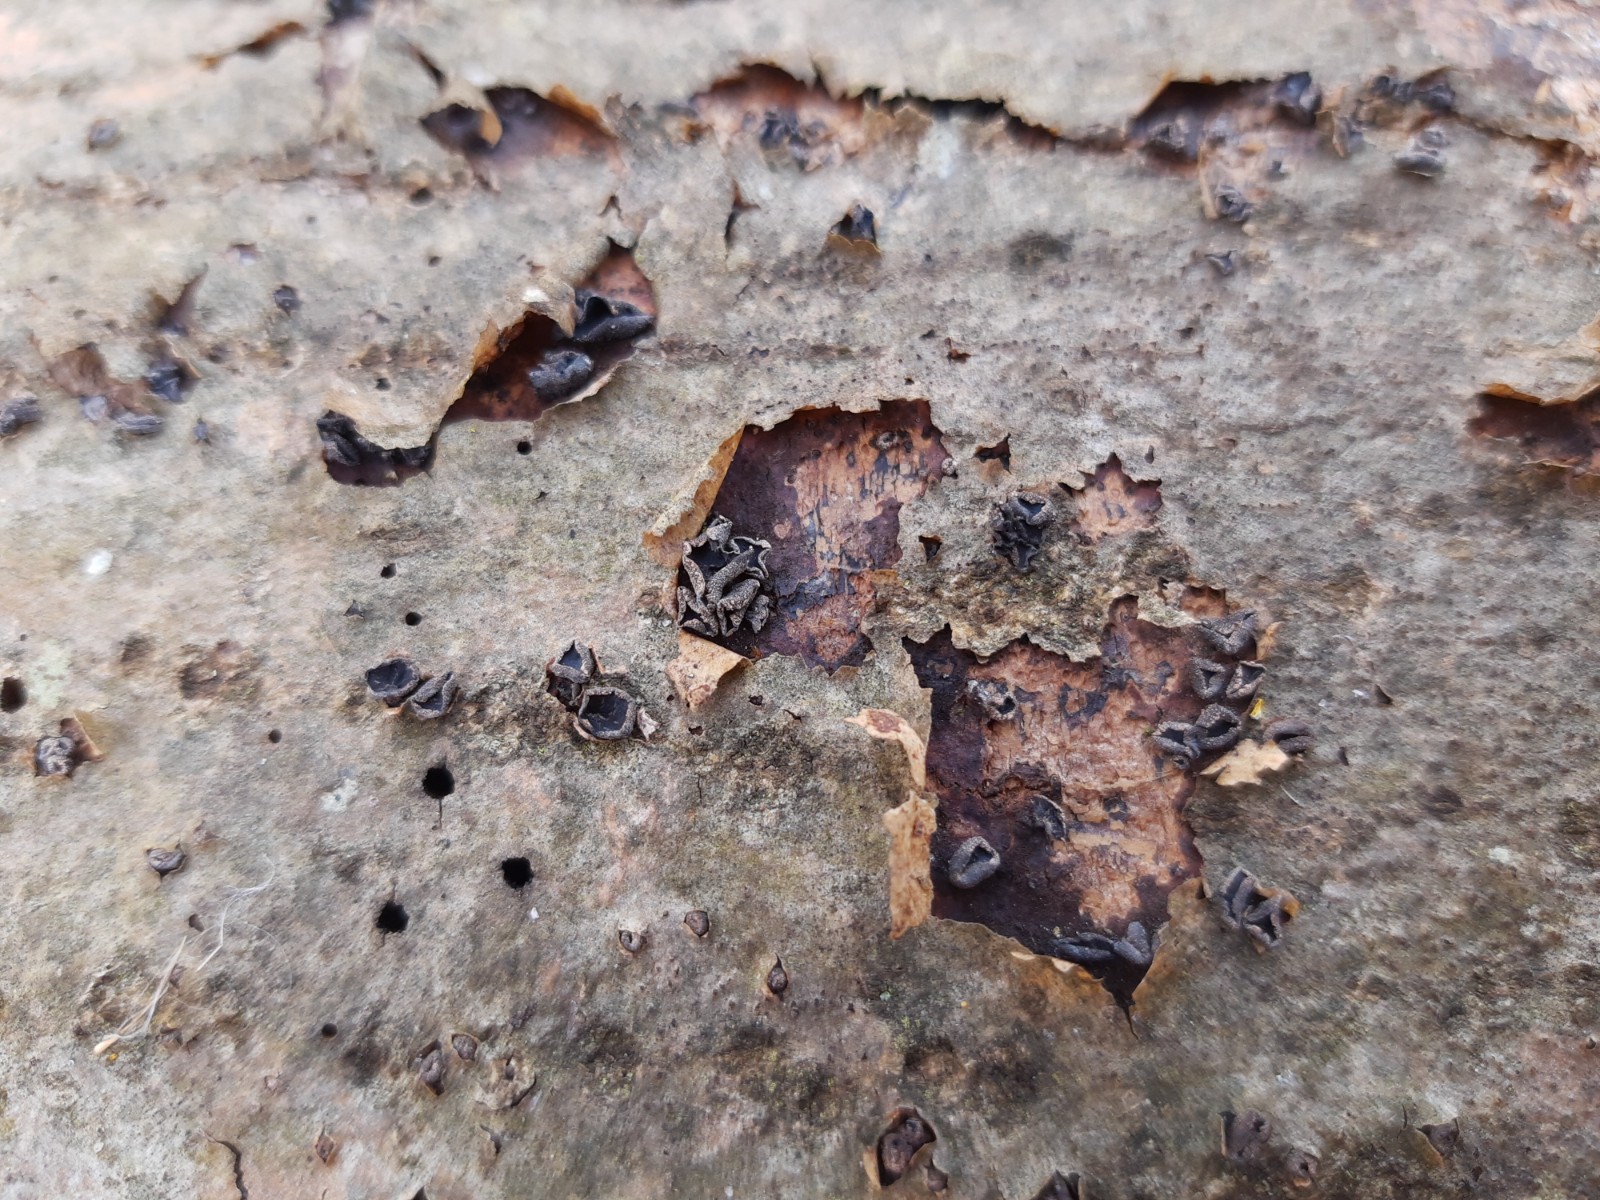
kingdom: Fungi
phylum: Ascomycota
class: Leotiomycetes
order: Helotiales
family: Sclerotiniaceae
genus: Sclerencoelia
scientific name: Sclerencoelia fraxinicola
